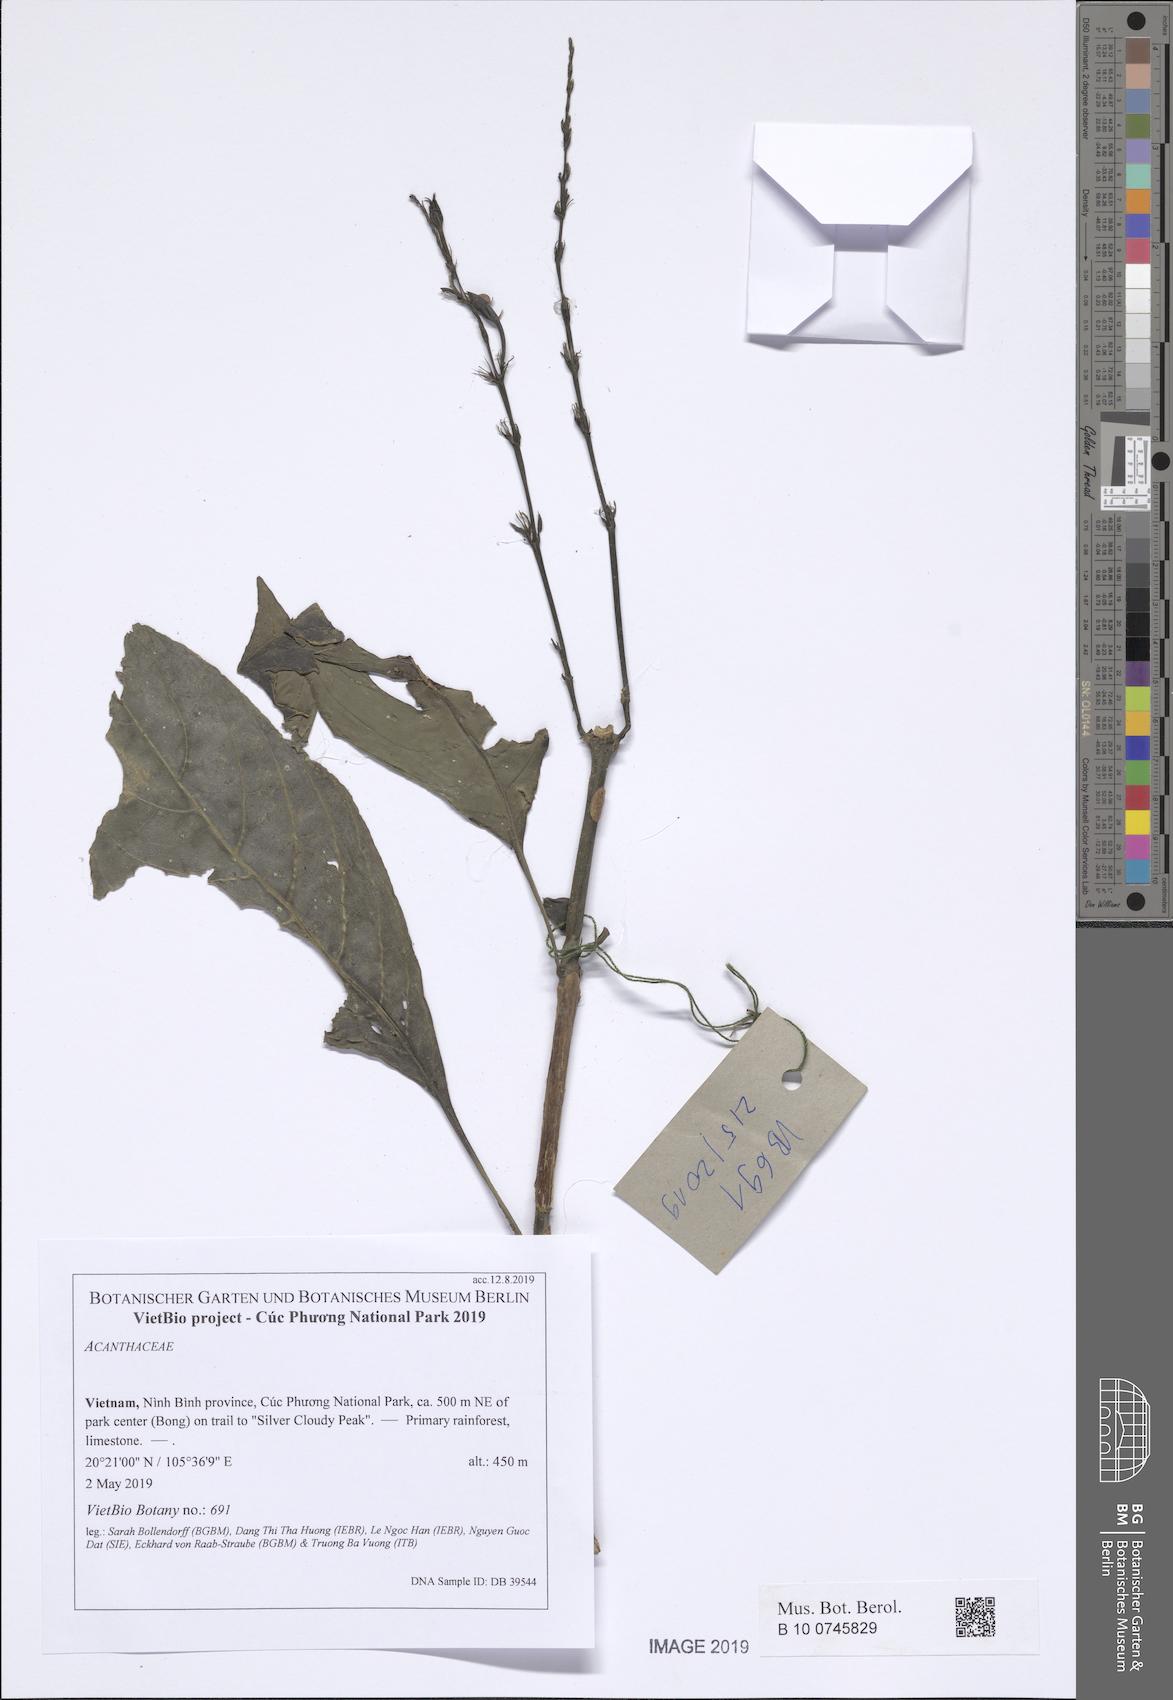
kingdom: Plantae
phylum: Tracheophyta
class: Magnoliopsida
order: Lamiales
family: Acanthaceae
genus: Pseuderanthemum
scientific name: Pseuderanthemum crenulatum
